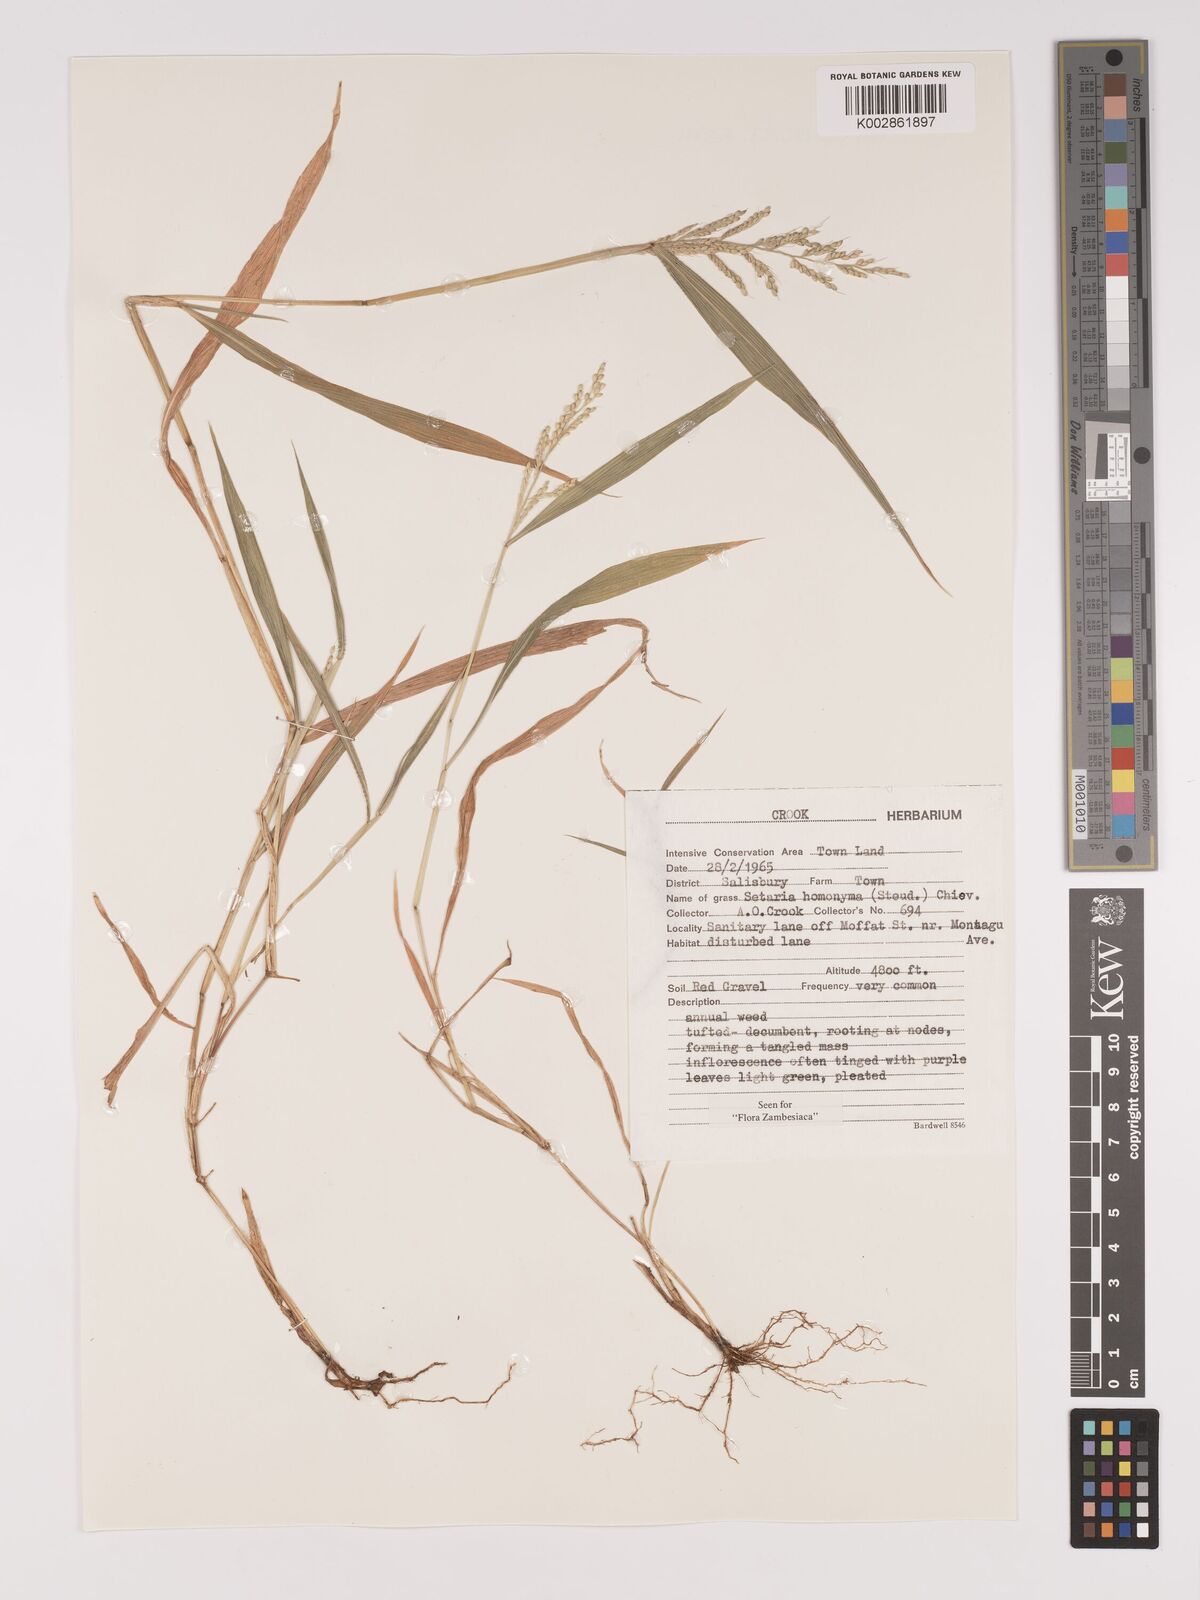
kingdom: Plantae
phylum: Tracheophyta
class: Liliopsida
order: Poales
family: Poaceae
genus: Setaria
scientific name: Setaria homonyma
